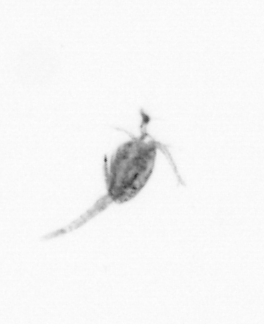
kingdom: Animalia
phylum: Arthropoda
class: Copepoda
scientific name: Copepoda
